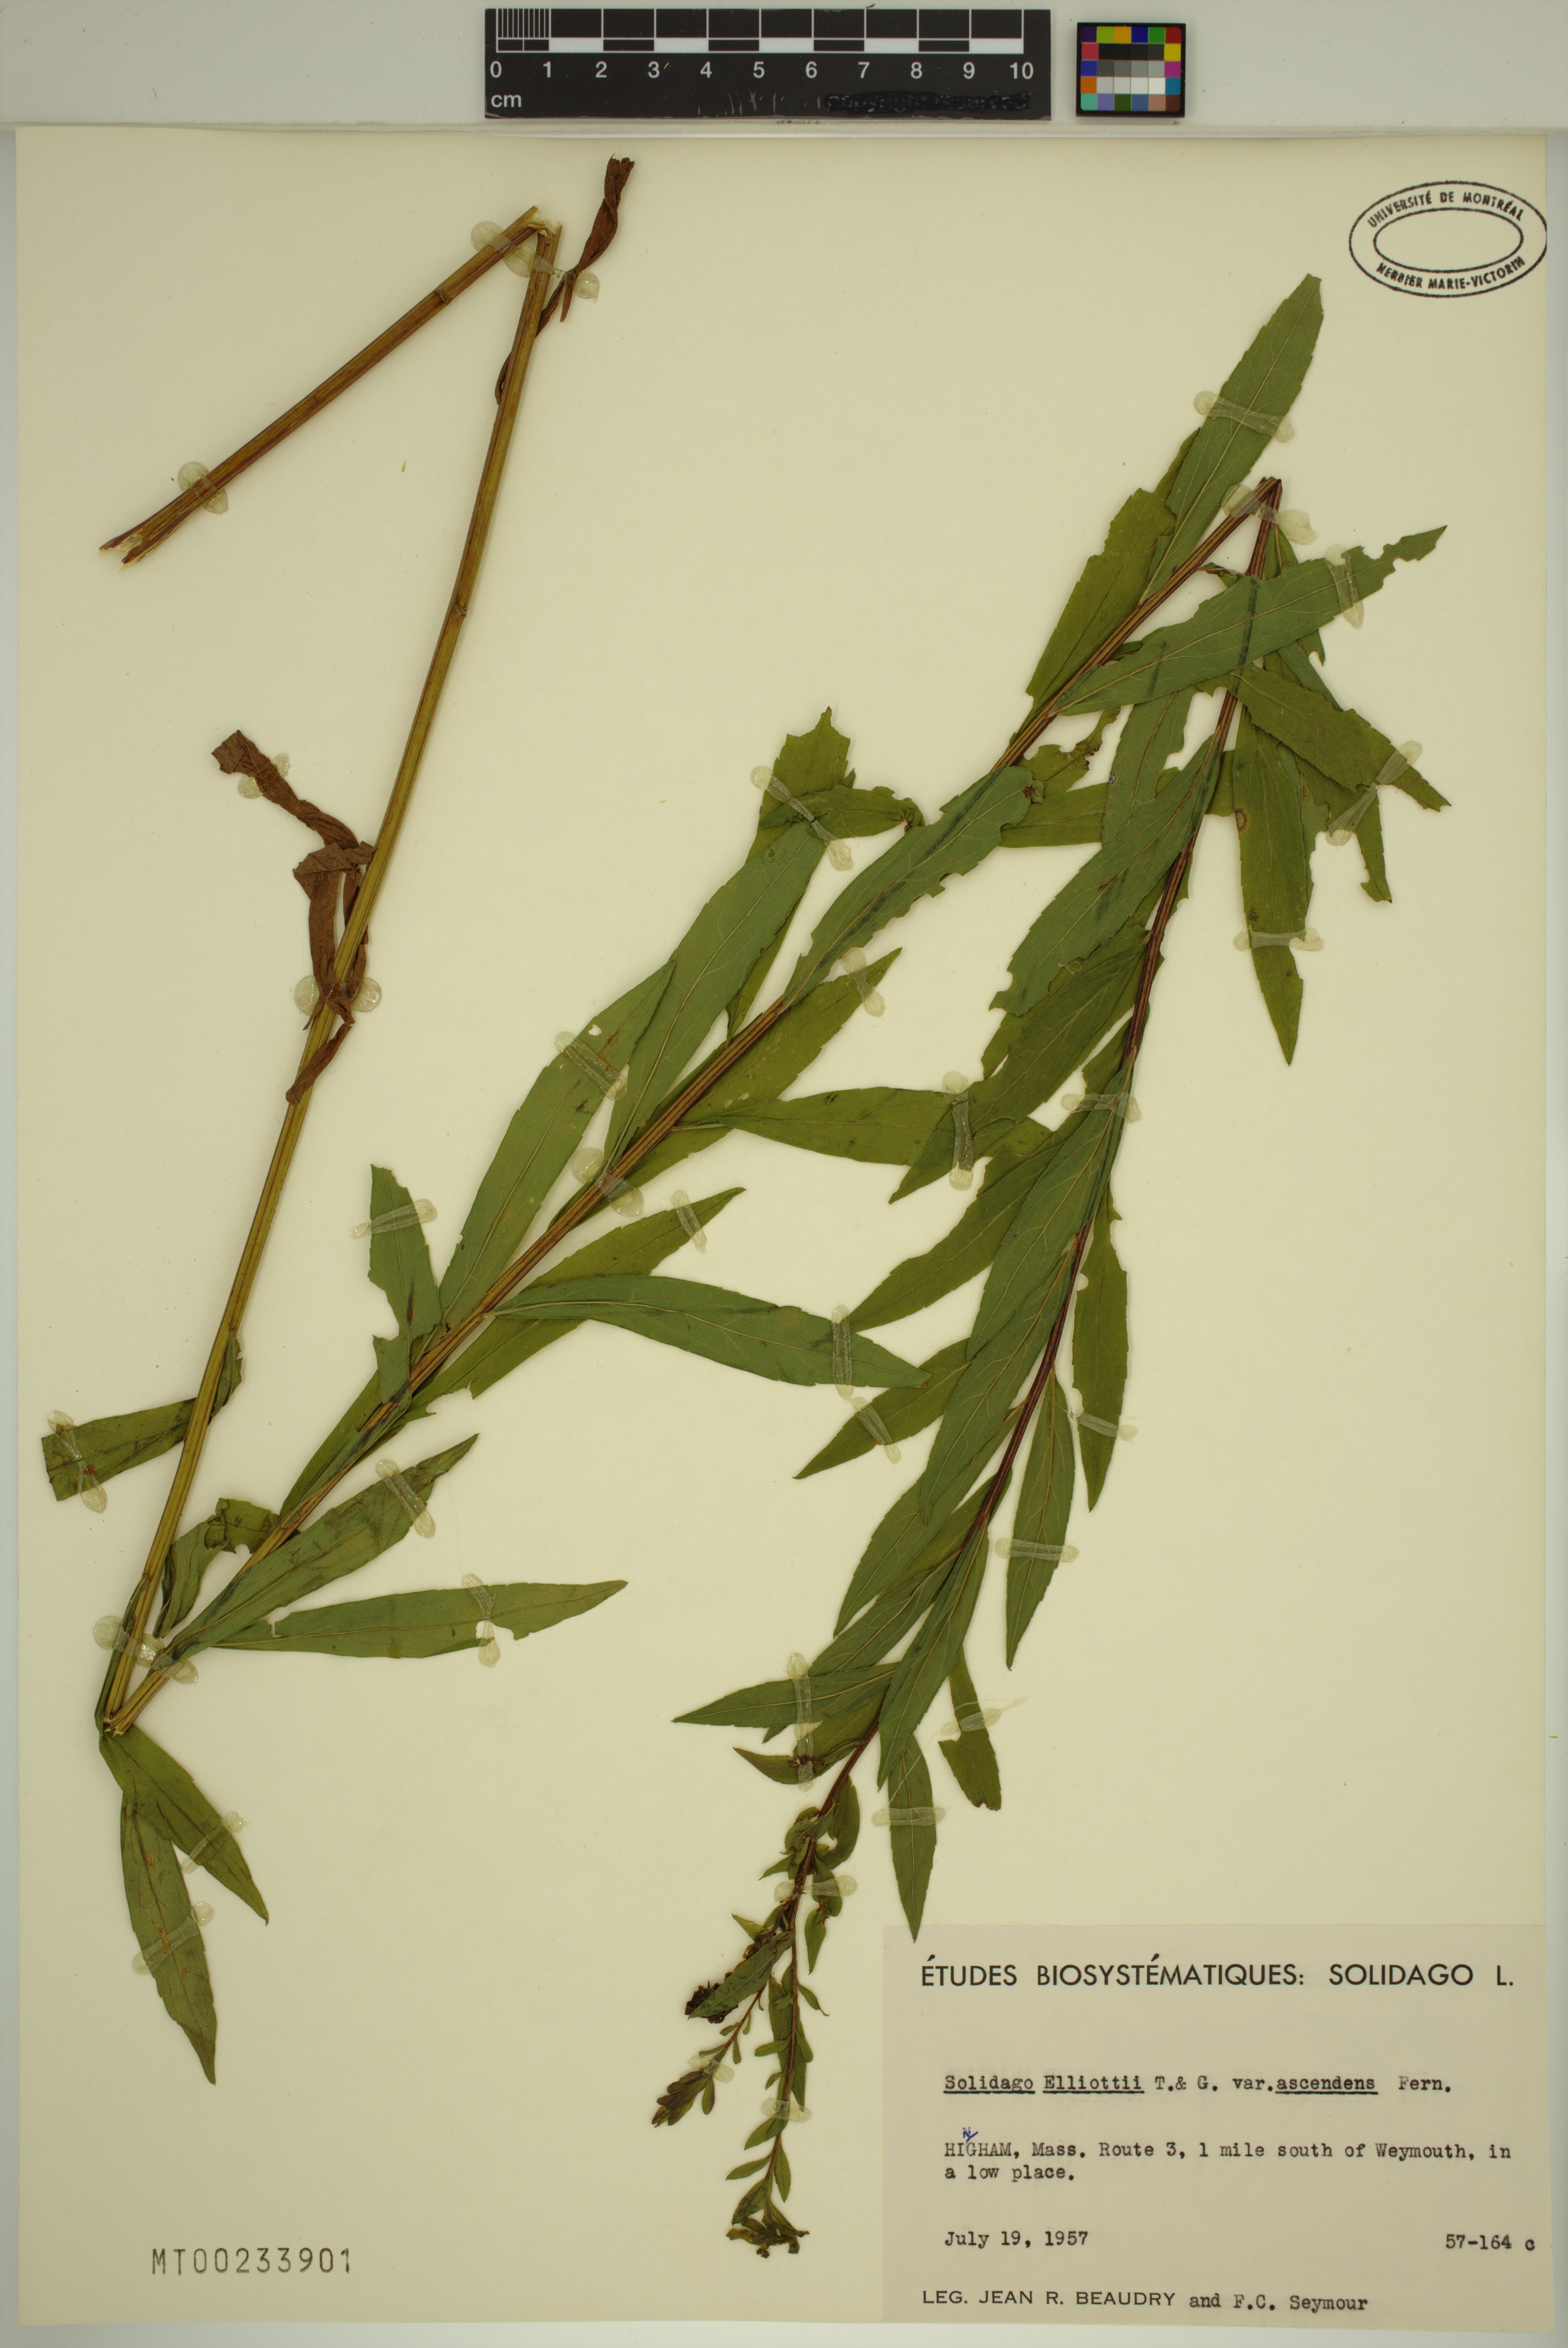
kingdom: Plantae
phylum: Tracheophyta
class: Magnoliopsida
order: Asterales
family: Asteraceae
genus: Solidago
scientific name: Solidago latissimifolia
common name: Elliott's goldenrod
